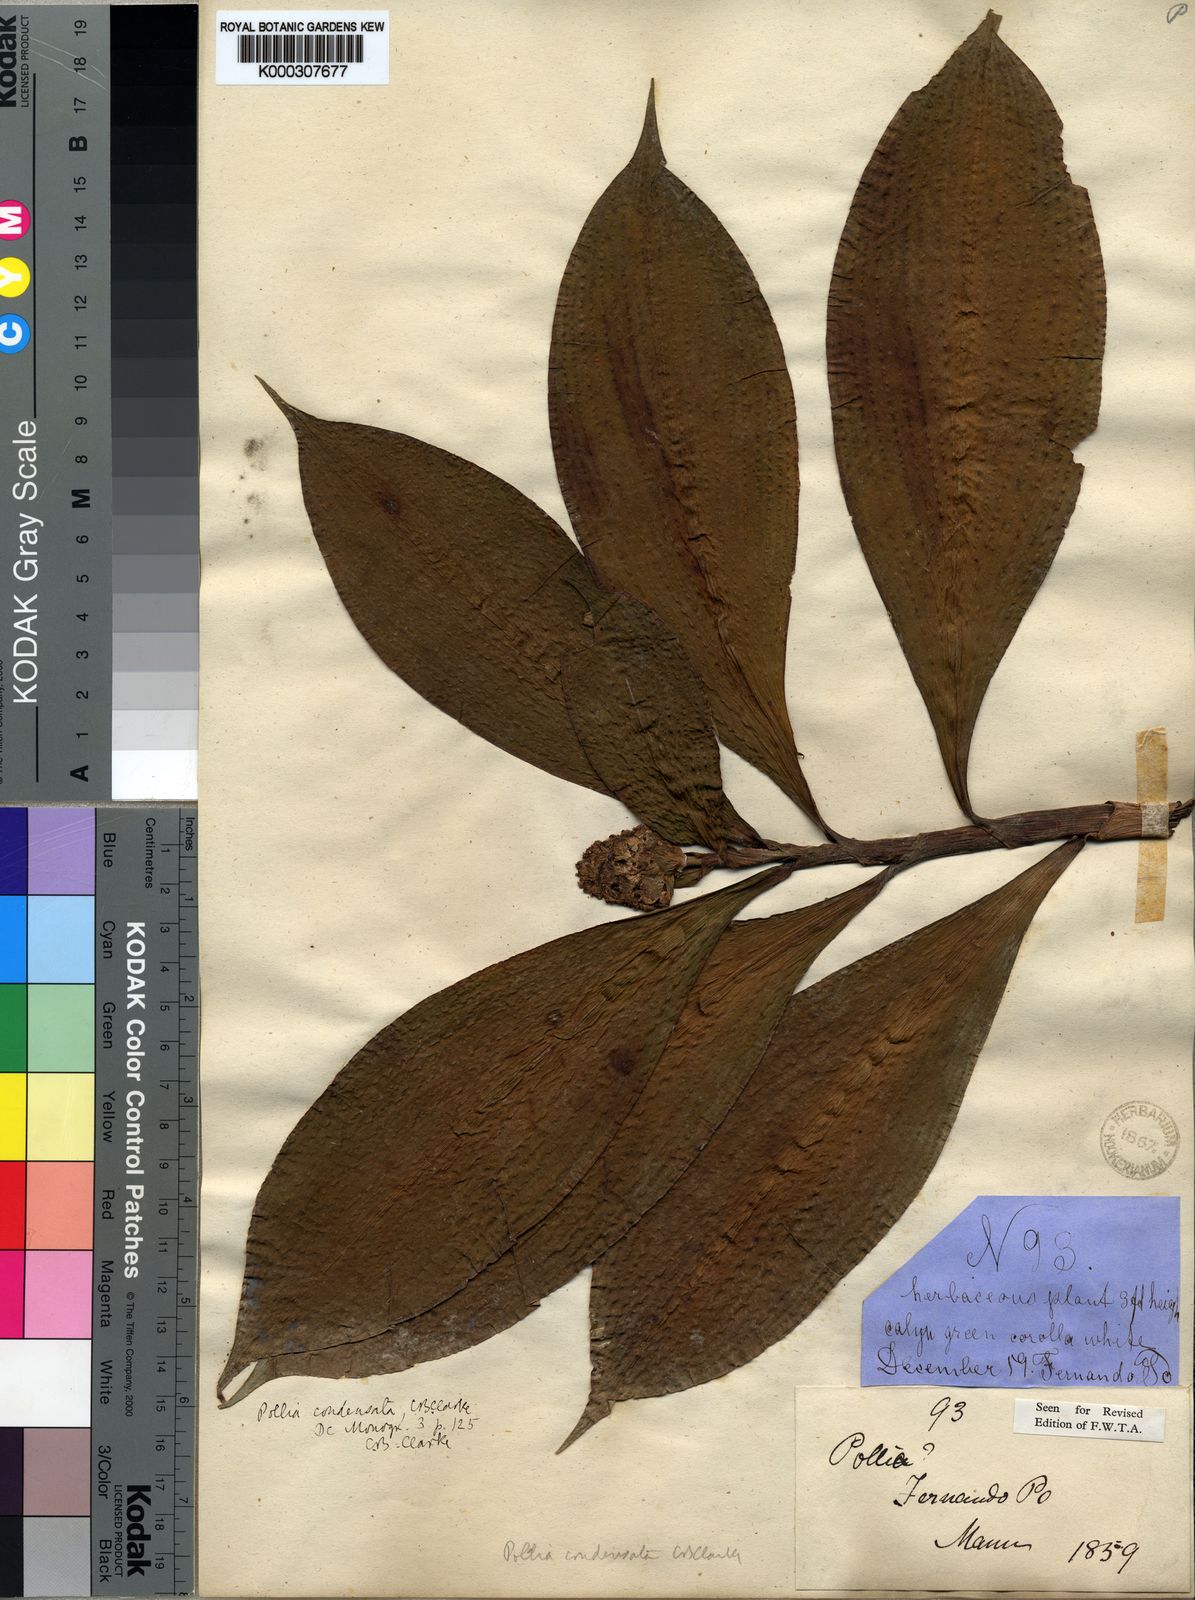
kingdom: Plantae
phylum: Tracheophyta
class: Liliopsida
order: Commelinales
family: Commelinaceae
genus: Pollia
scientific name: Pollia condensata
